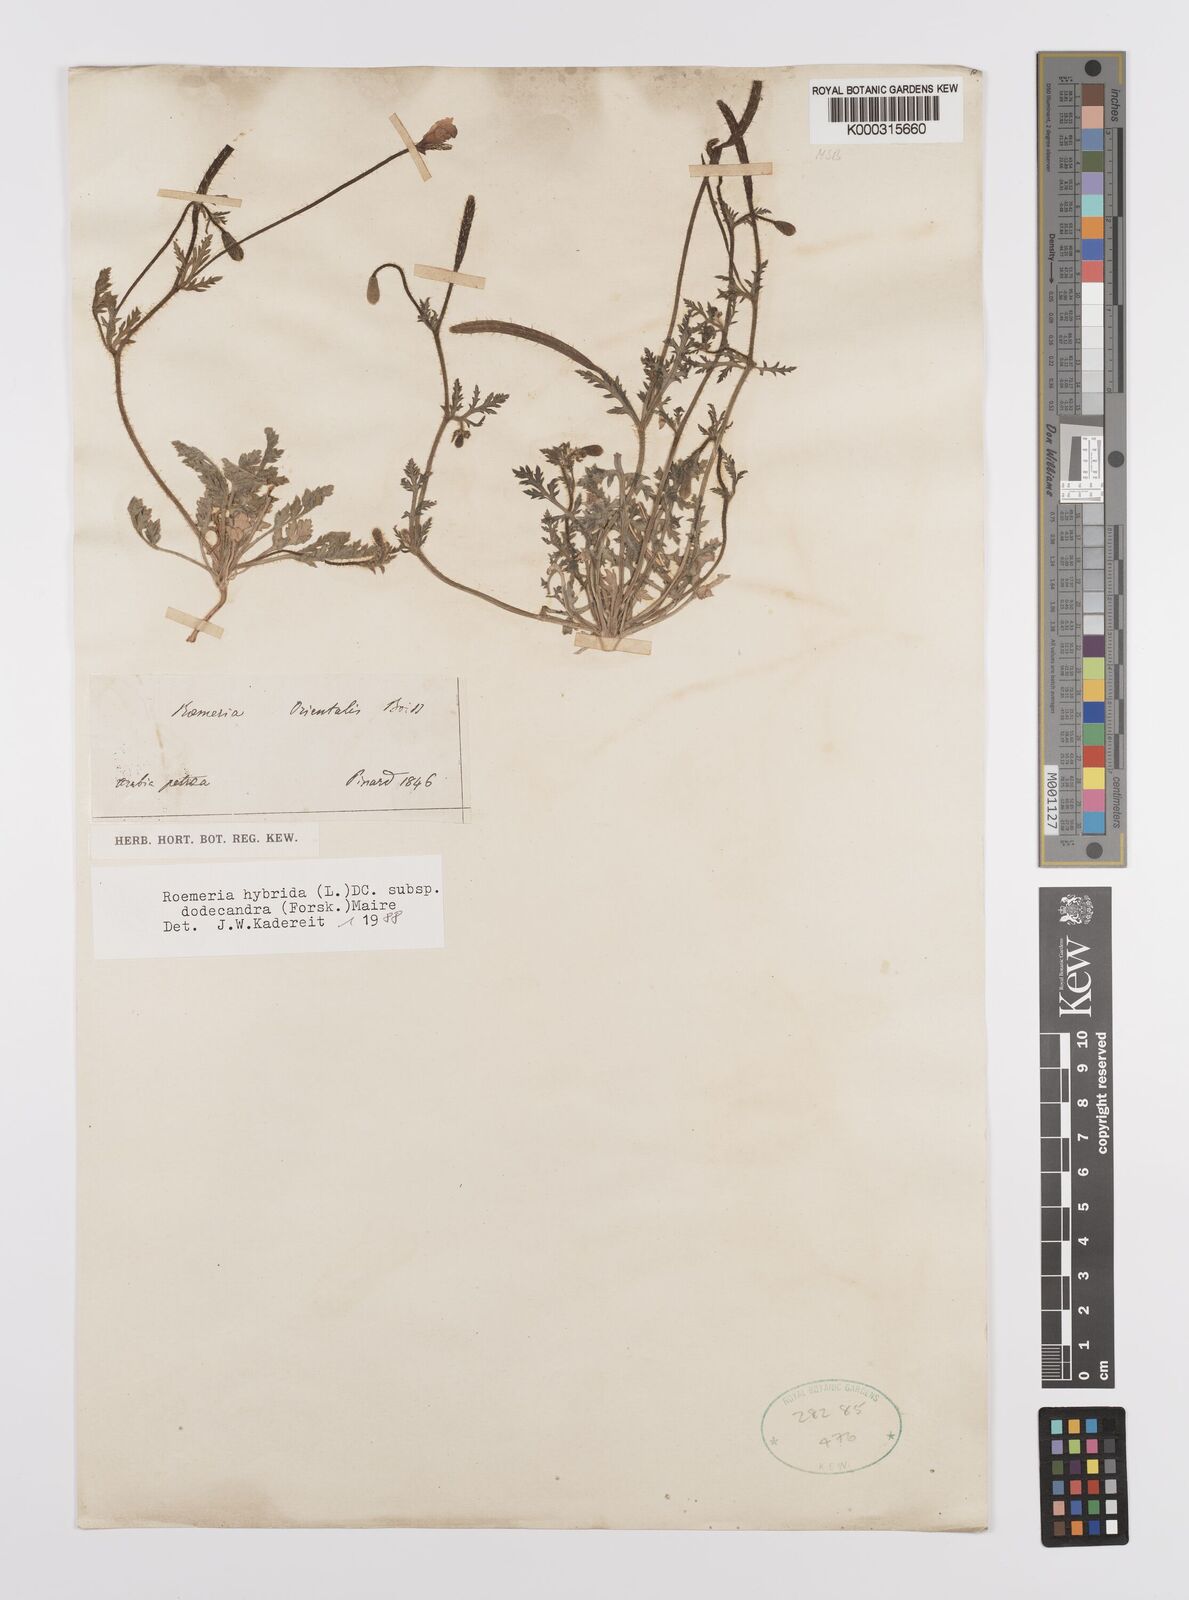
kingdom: Plantae
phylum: Tracheophyta
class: Magnoliopsida
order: Ranunculales
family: Papaveraceae
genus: Roemeria
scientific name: Roemeria hybrida
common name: Violet horned-poppy
